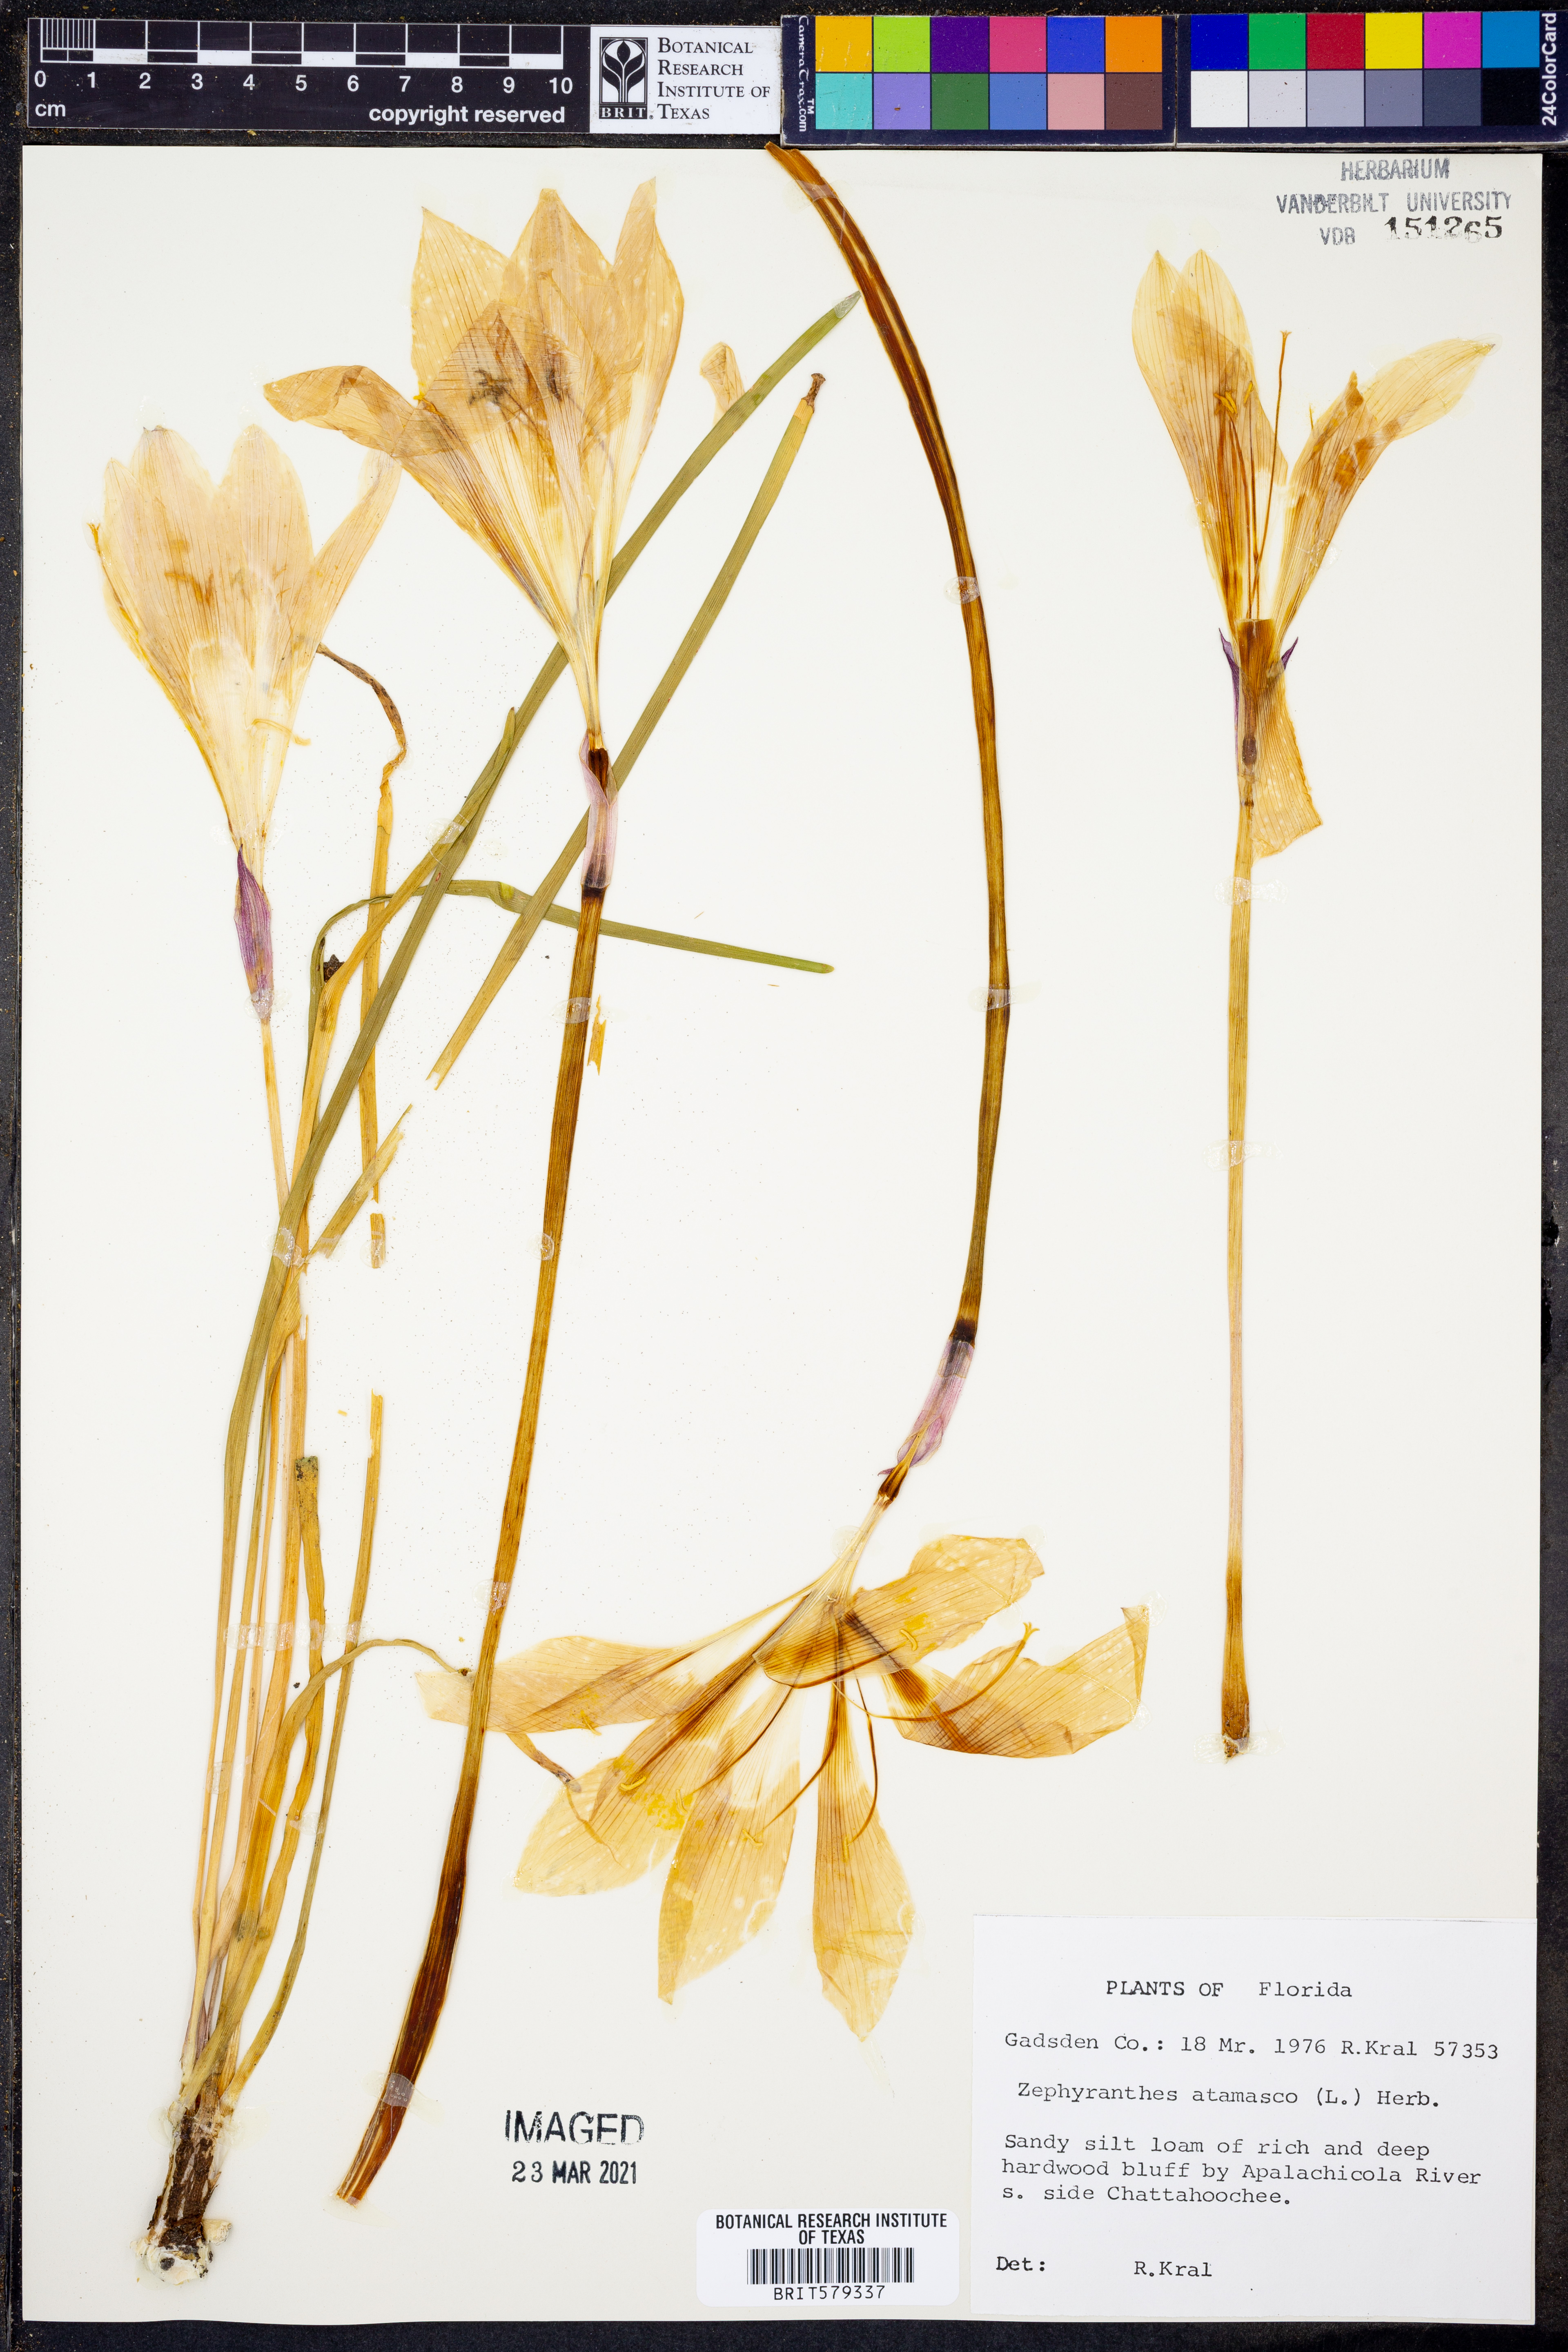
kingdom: Plantae
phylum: Tracheophyta
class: Liliopsida
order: Asparagales
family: Amaryllidaceae
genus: Zephyranthes
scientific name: Zephyranthes atamasco
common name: Atamasco lily
